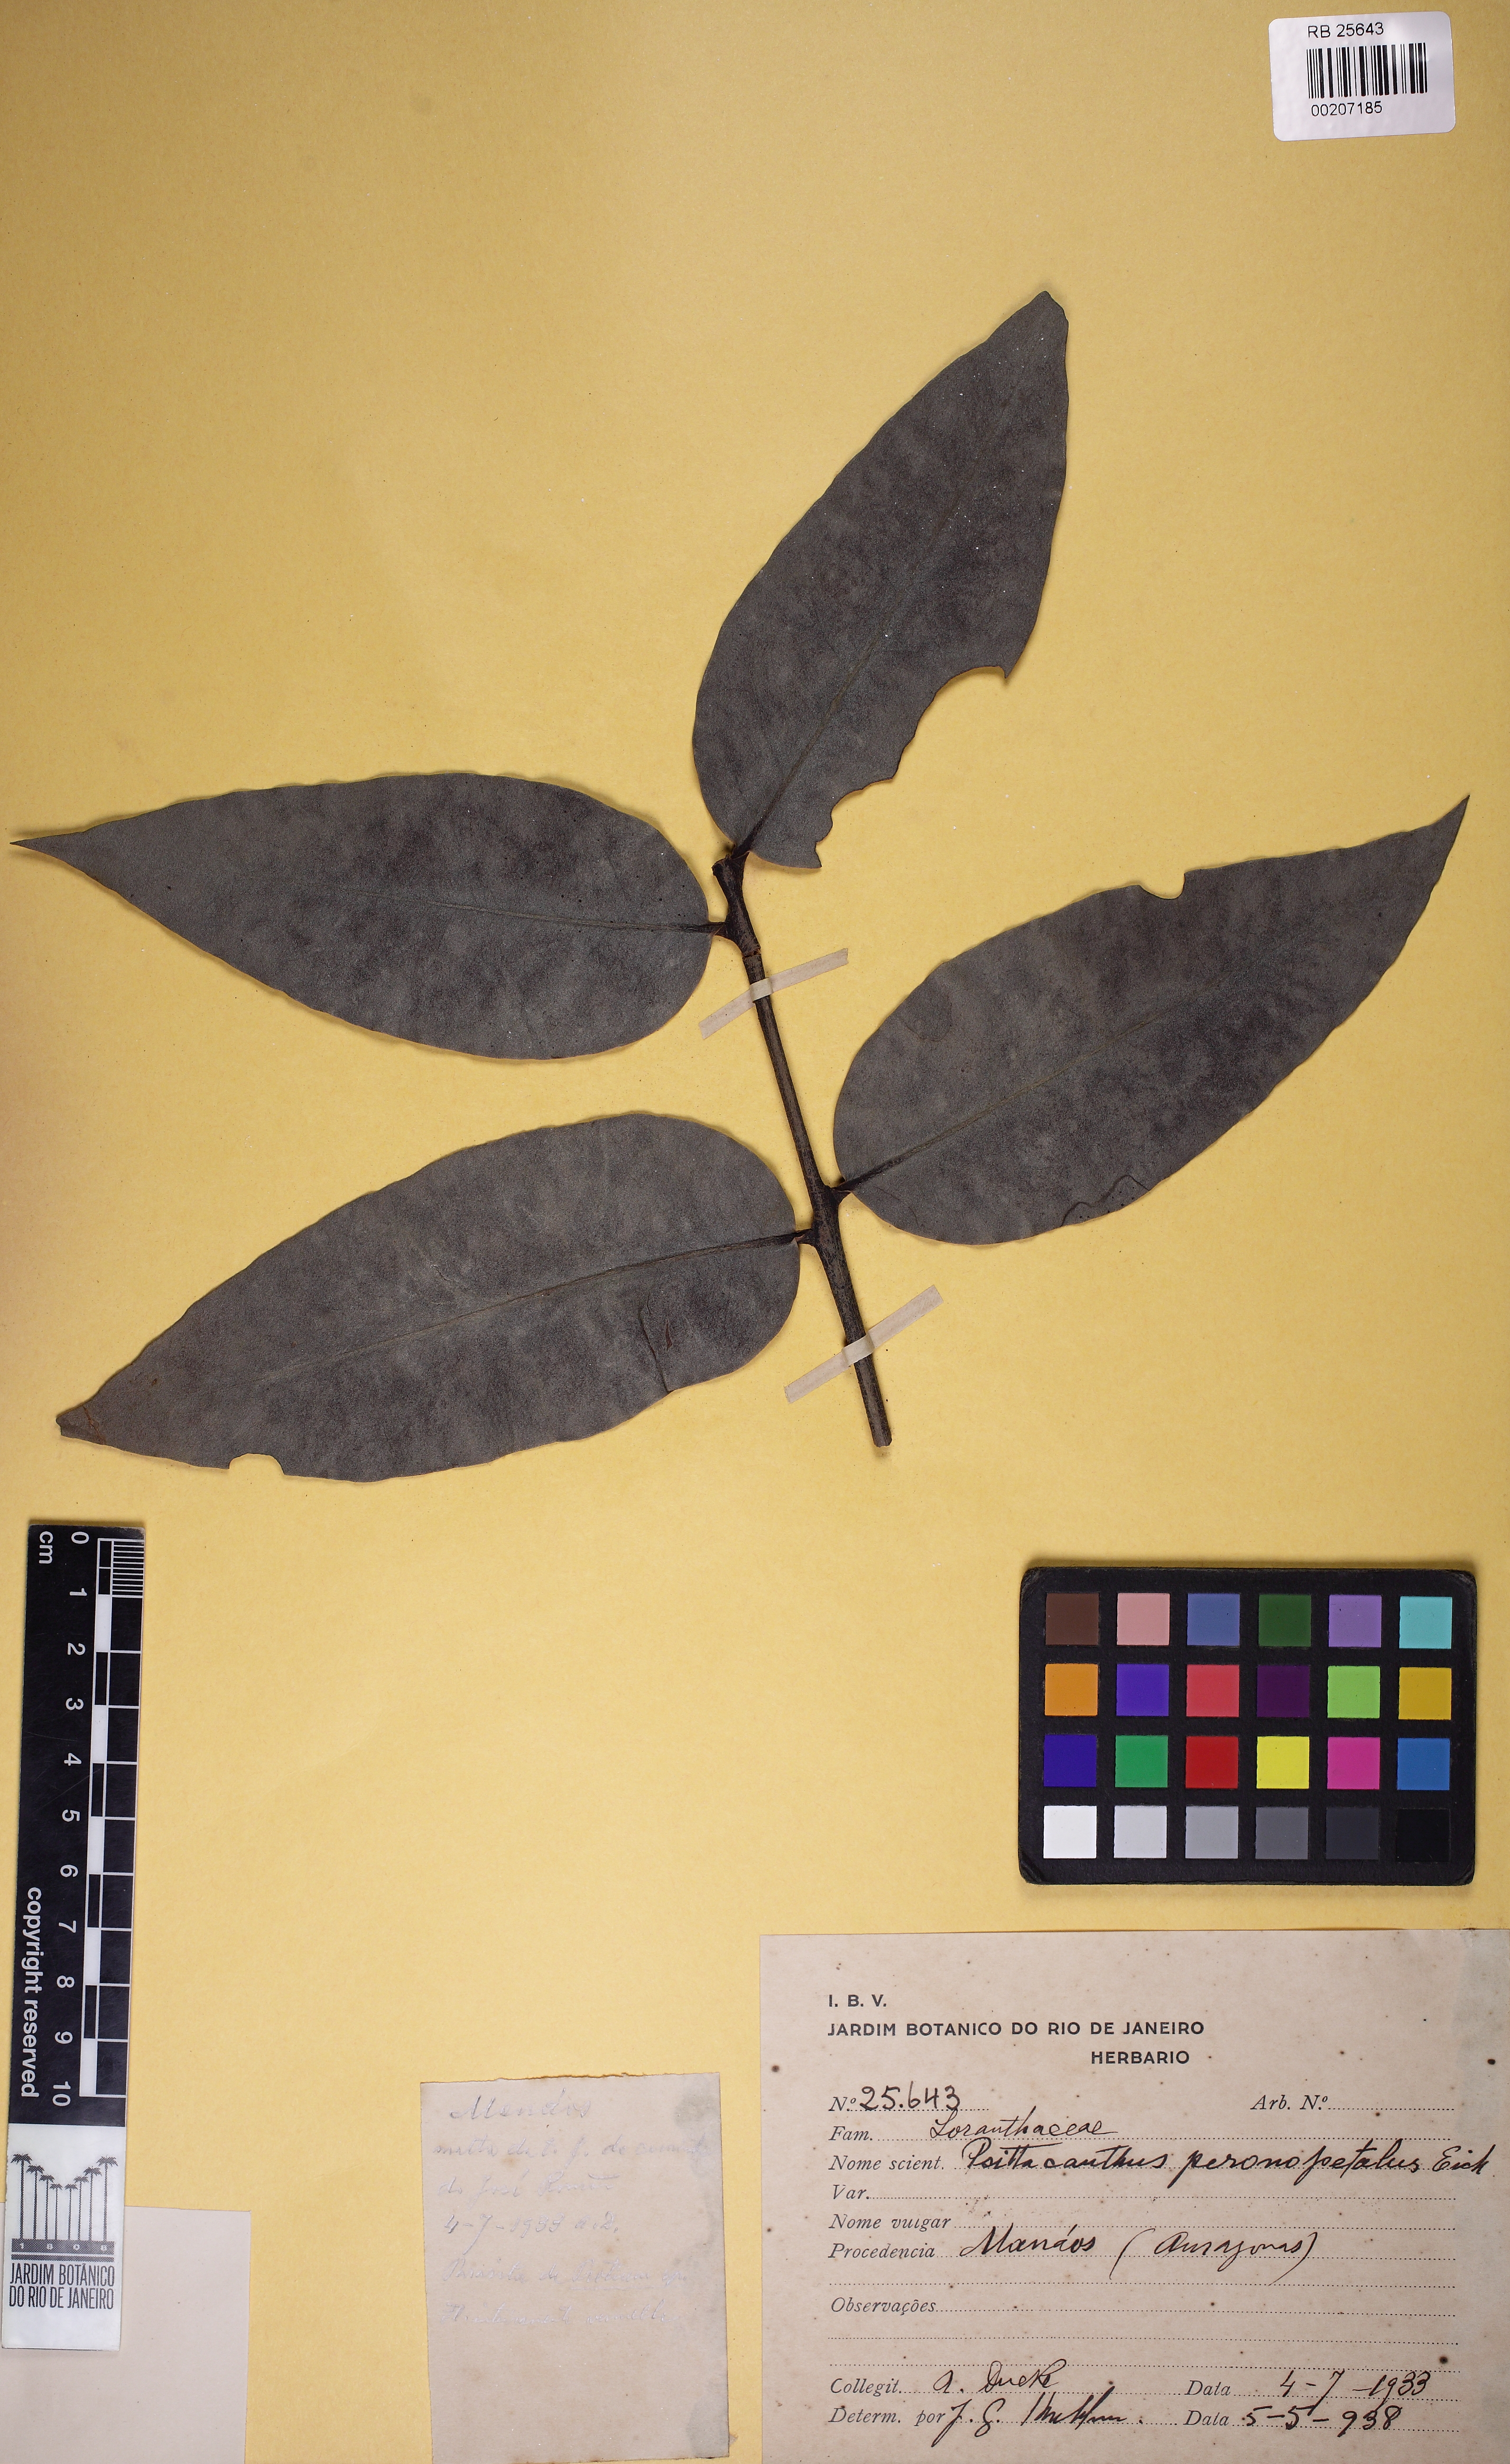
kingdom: Plantae
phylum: Tracheophyta
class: Magnoliopsida
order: Santalales
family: Loranthaceae
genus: Psittacanthus
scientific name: Psittacanthus peronopetalus
